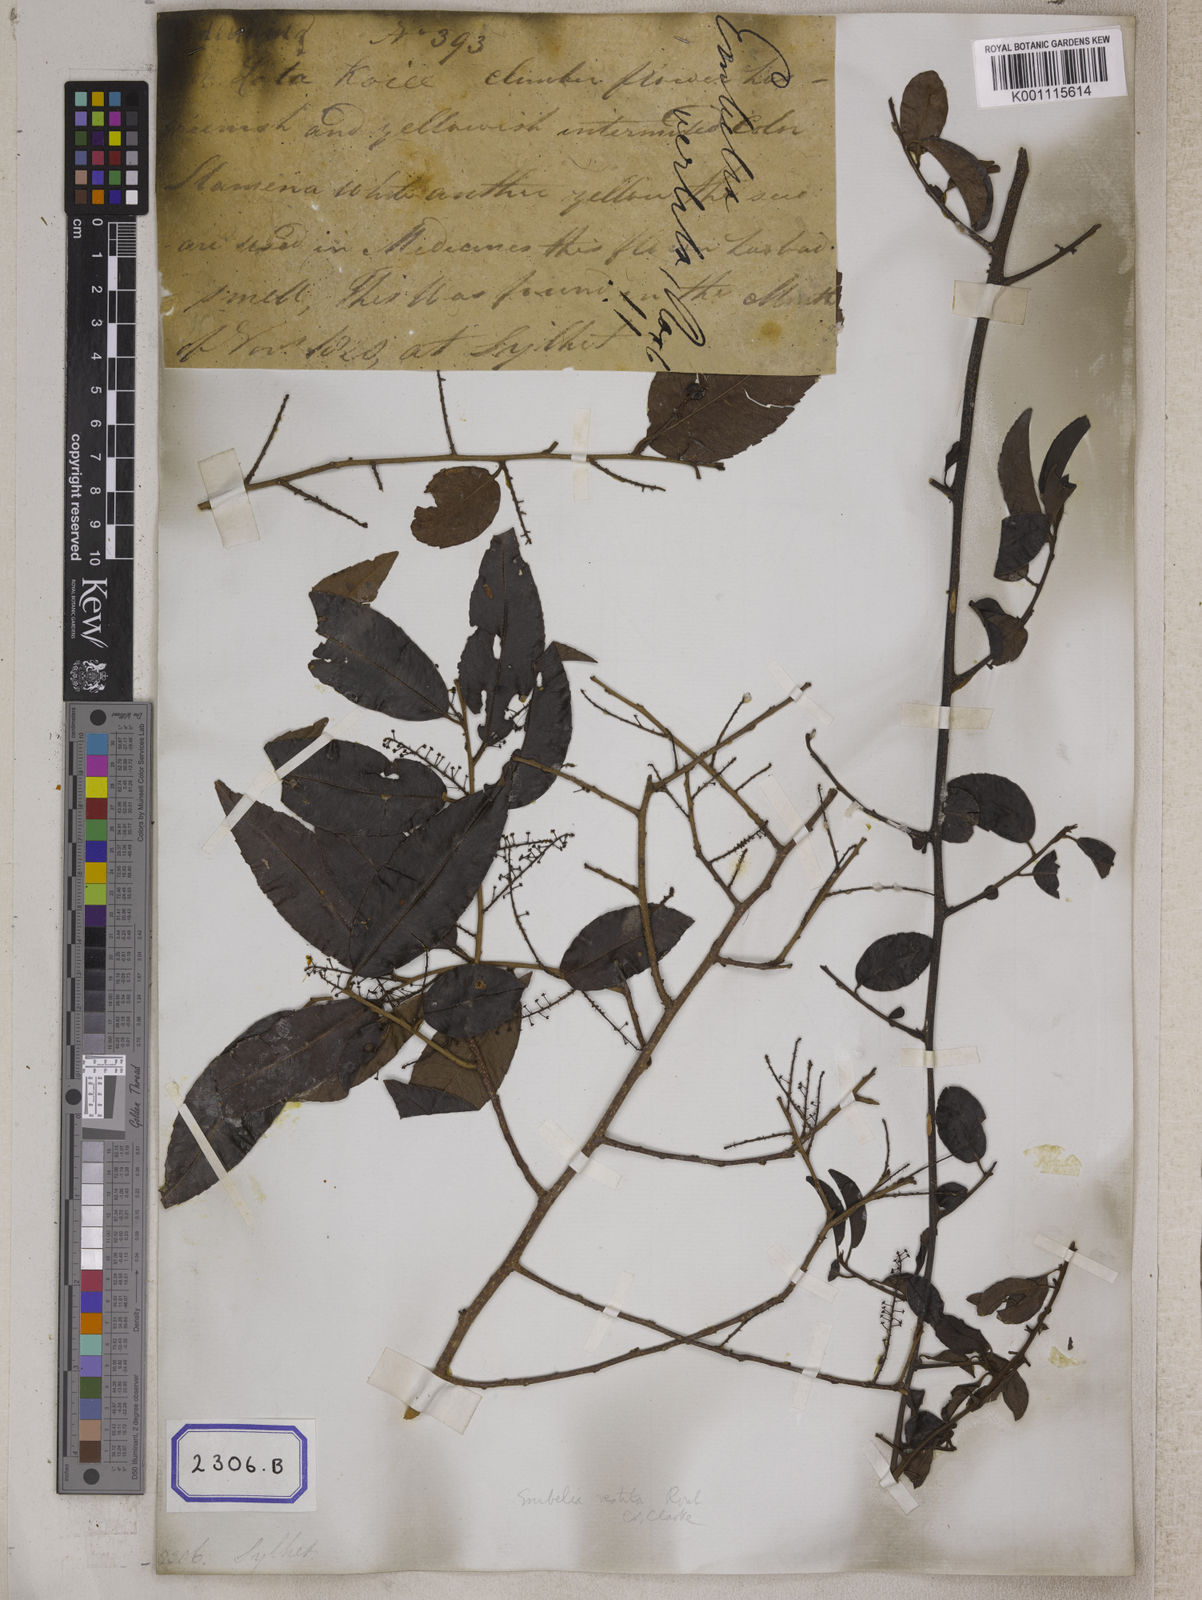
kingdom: Plantae
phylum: Tracheophyta
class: Magnoliopsida
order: Ericales
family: Primulaceae
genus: Embelia
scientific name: Embelia vestita
